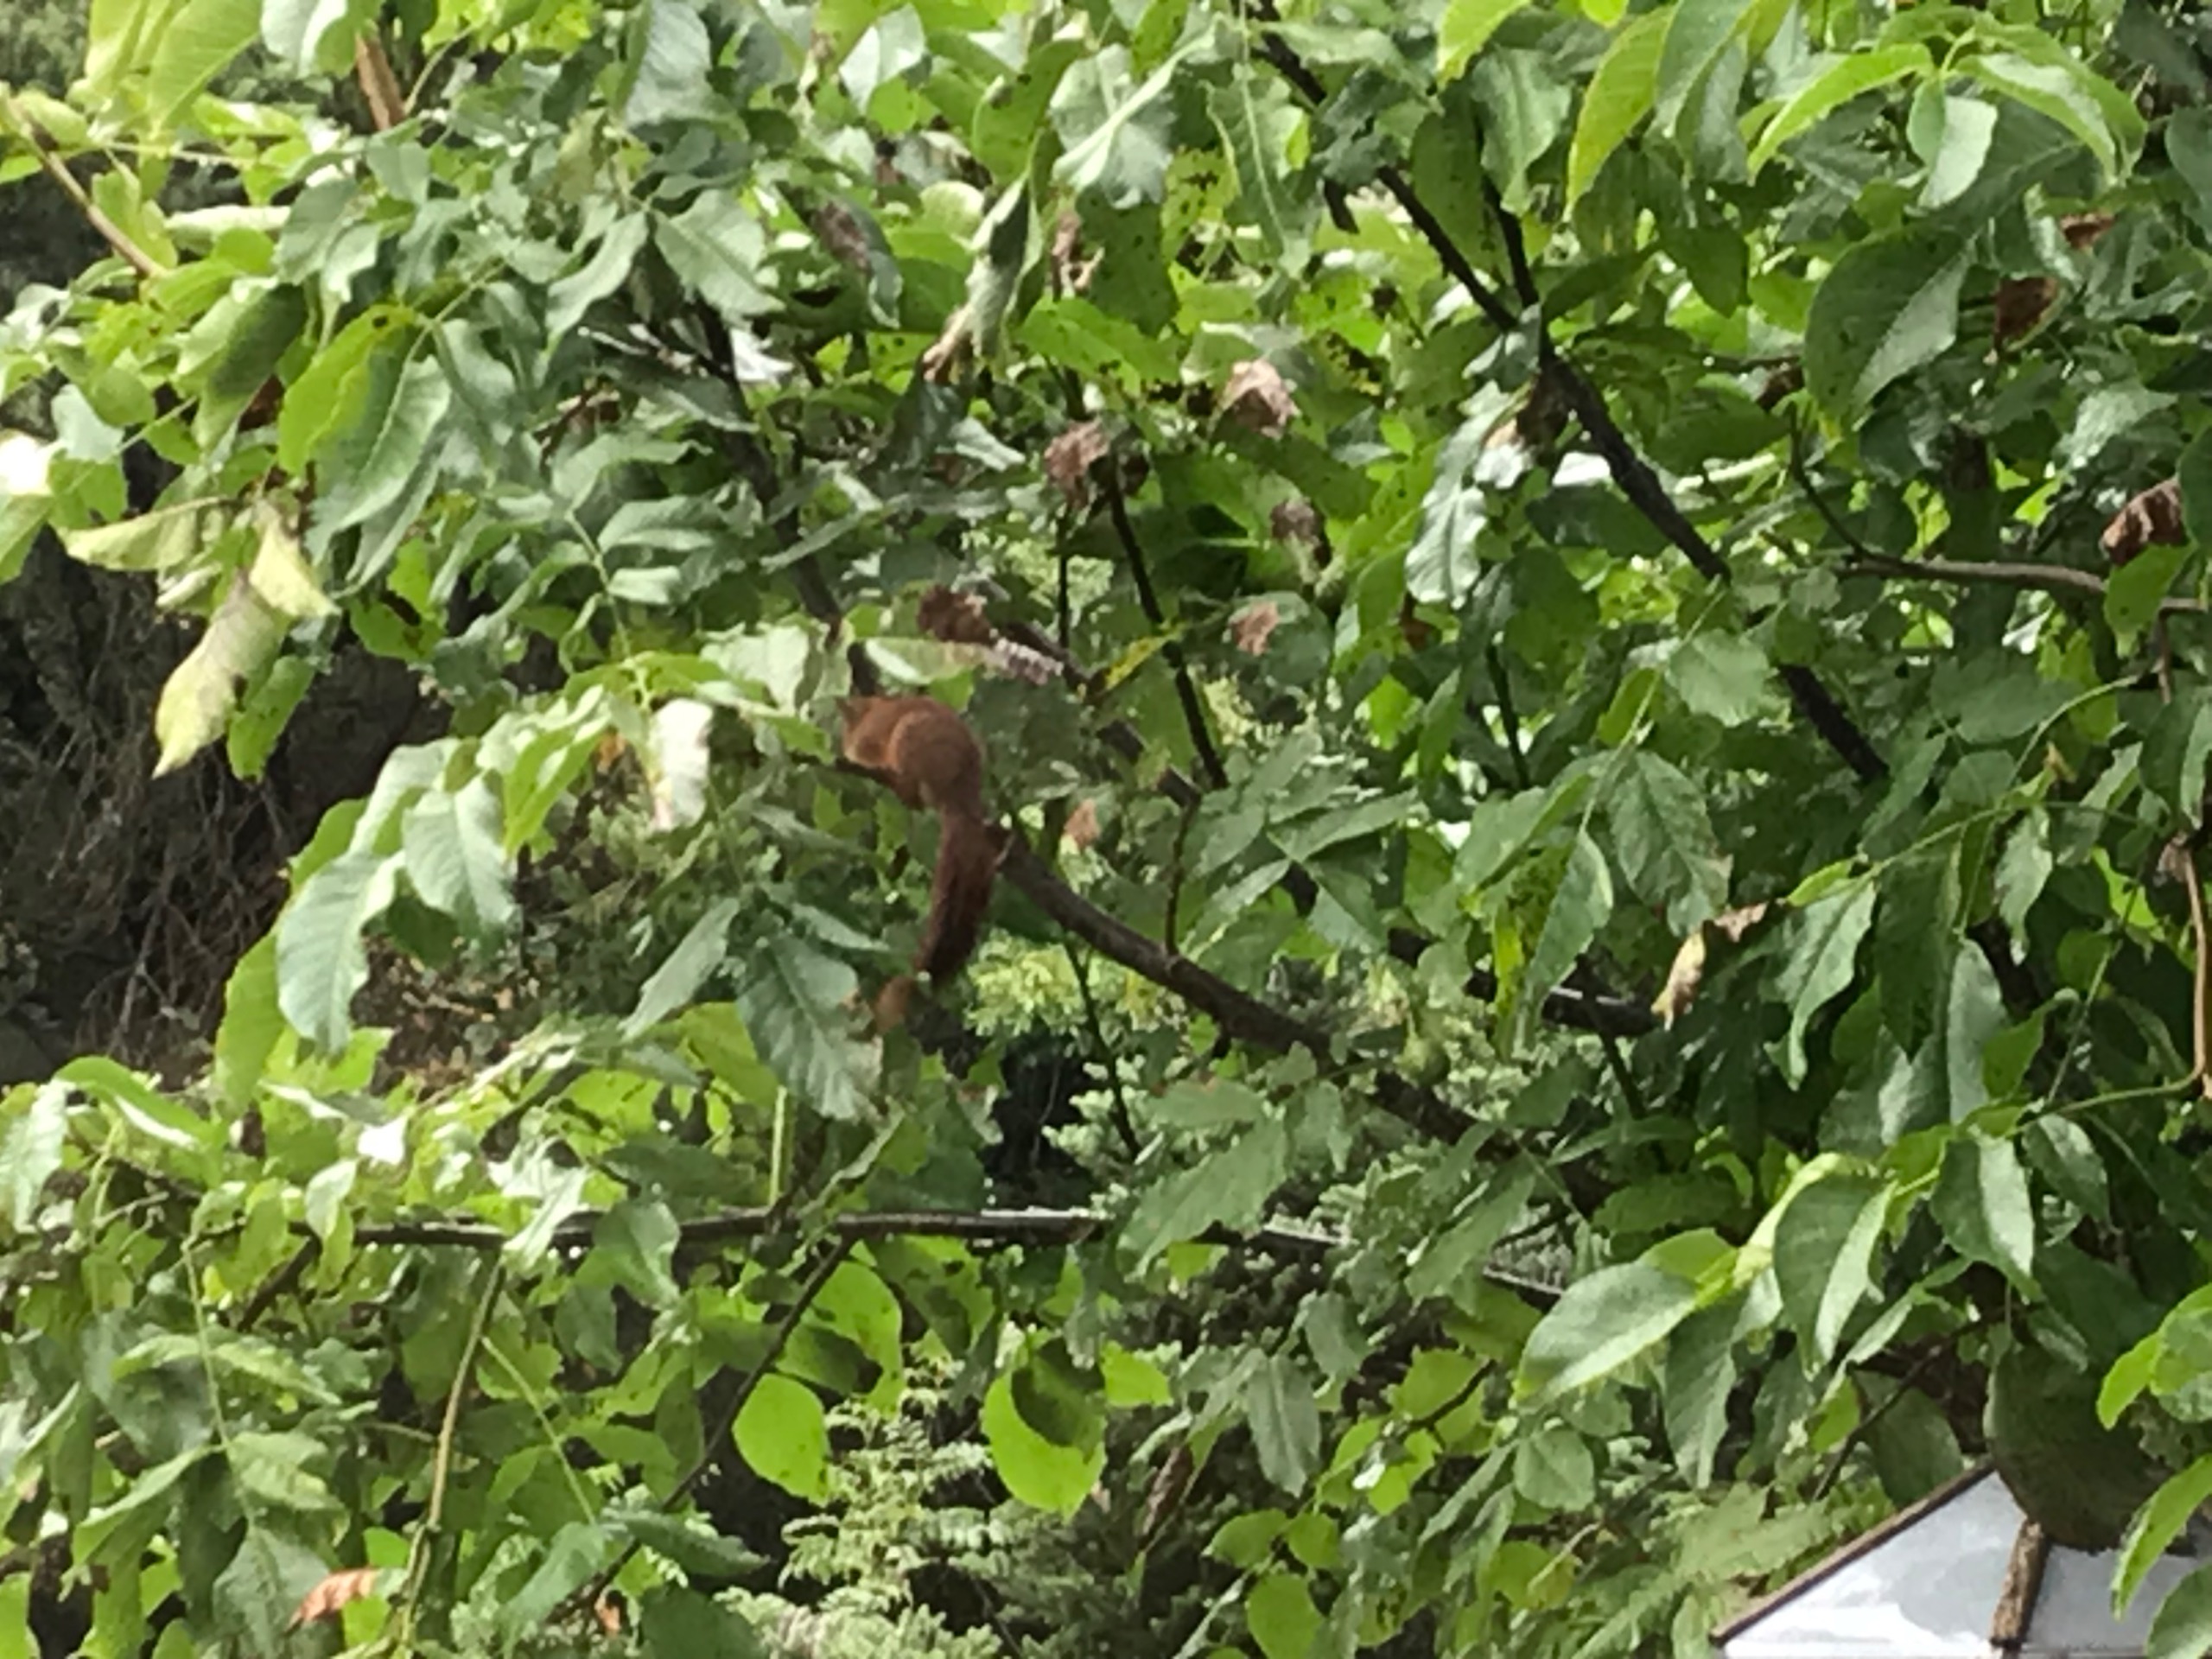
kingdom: Animalia
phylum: Chordata
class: Mammalia
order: Rodentia
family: Sciuridae
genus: Sciurus
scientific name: Sciurus vulgaris
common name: Egern
